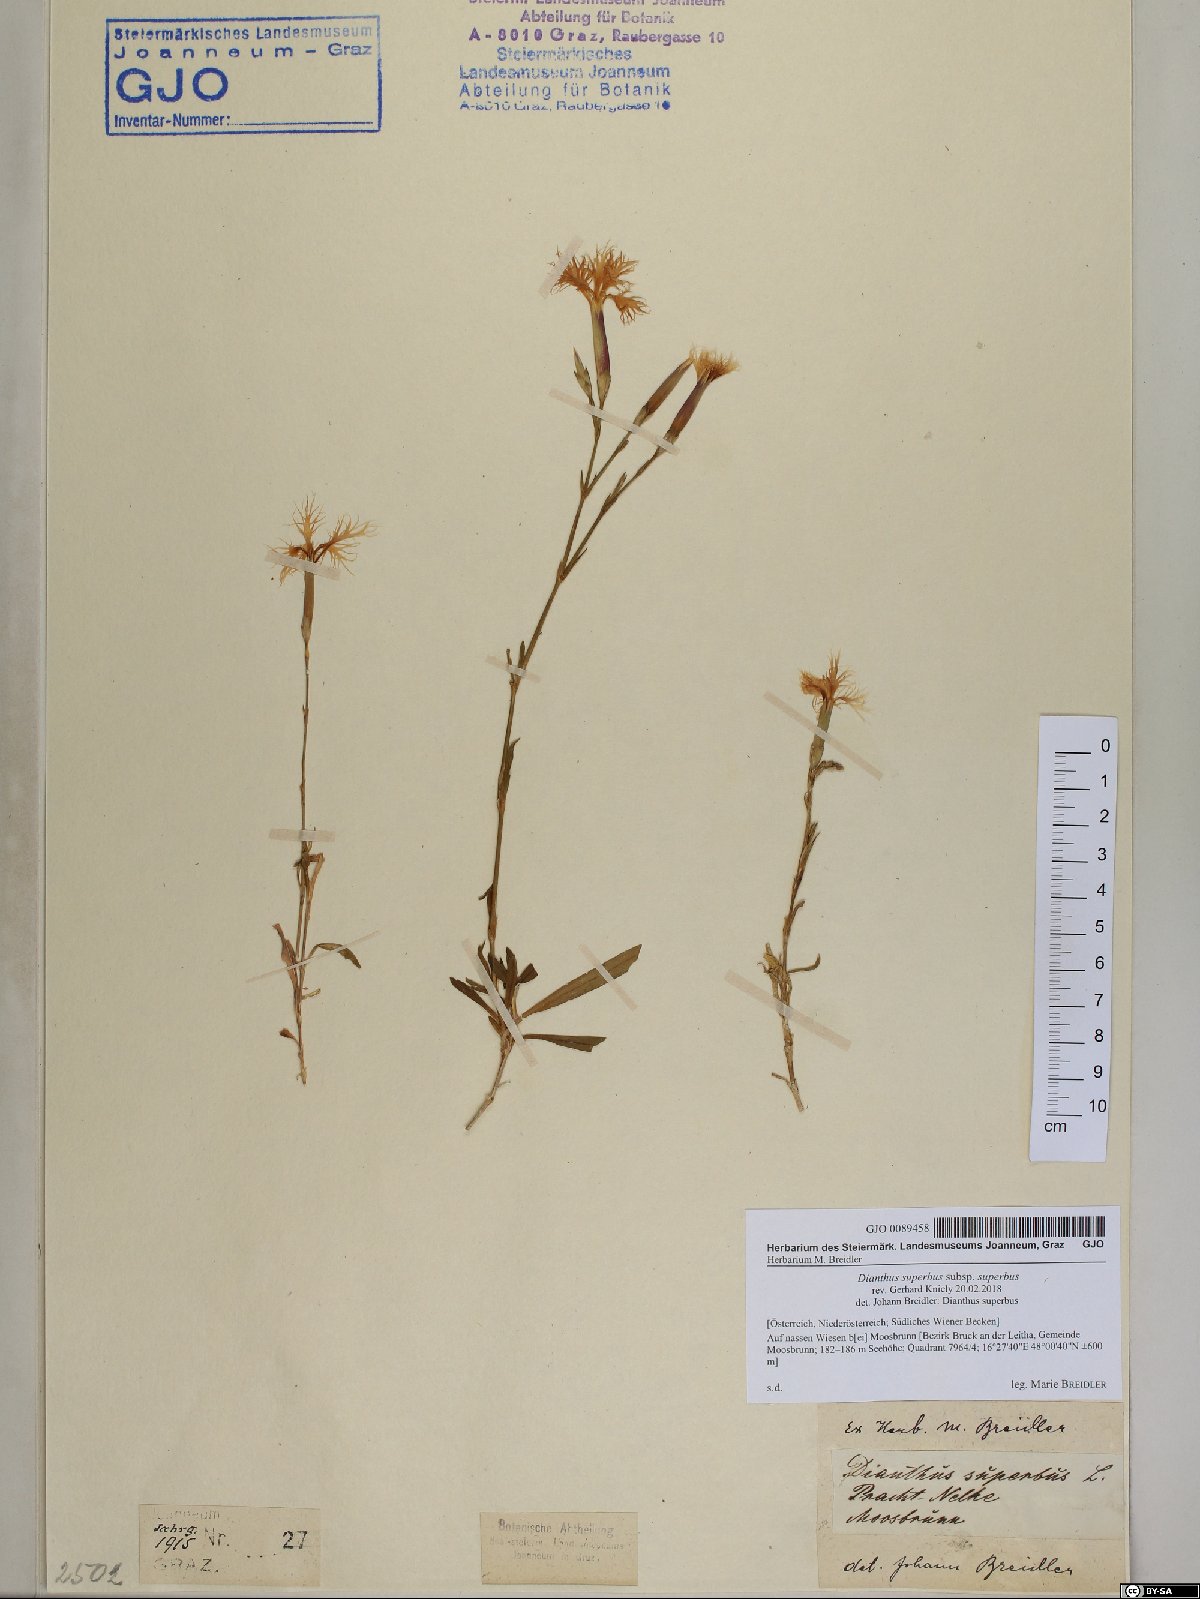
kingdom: Plantae
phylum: Tracheophyta
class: Magnoliopsida
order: Caryophyllales
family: Caryophyllaceae
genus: Dianthus
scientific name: Dianthus superbus
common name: Fringed pink
